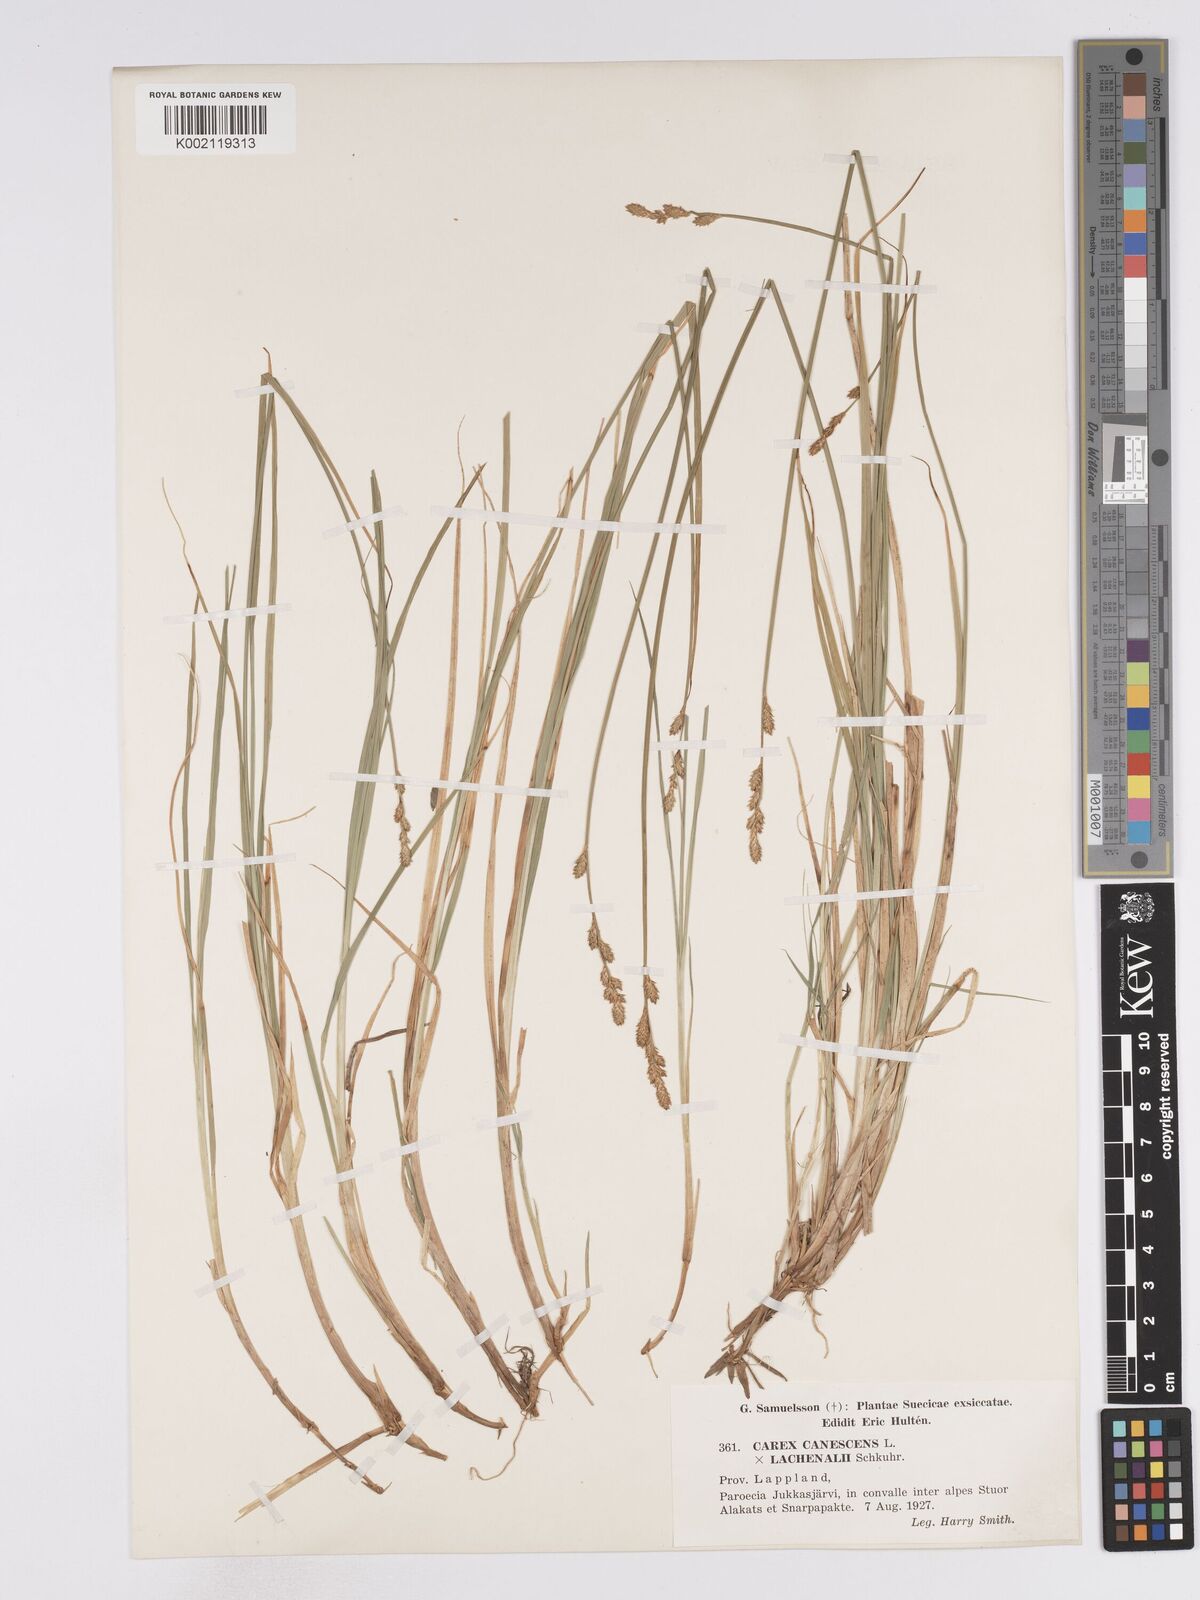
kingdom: Plantae
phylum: Tracheophyta
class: Liliopsida
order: Poales
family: Cyperaceae
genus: Carex
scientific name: Carex
